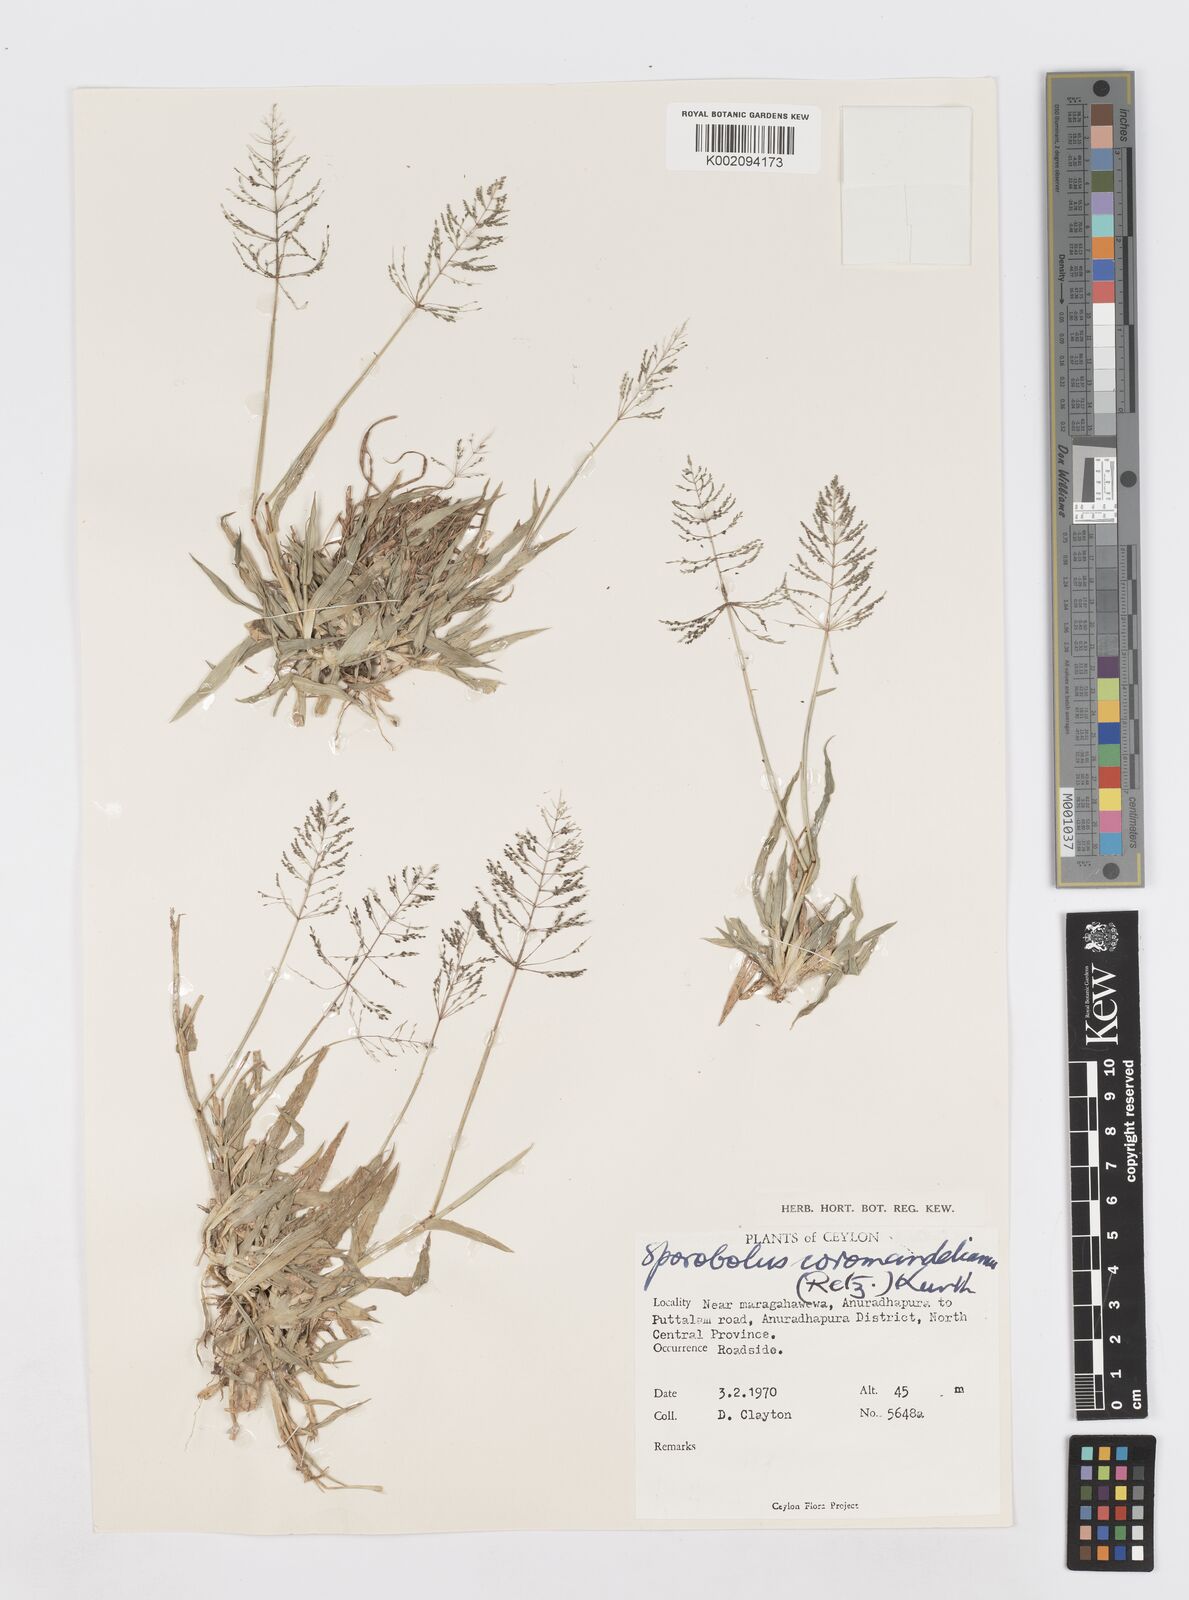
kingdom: Plantae
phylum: Tracheophyta
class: Liliopsida
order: Poales
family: Poaceae
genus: Sporobolus
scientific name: Sporobolus coromandelianus
